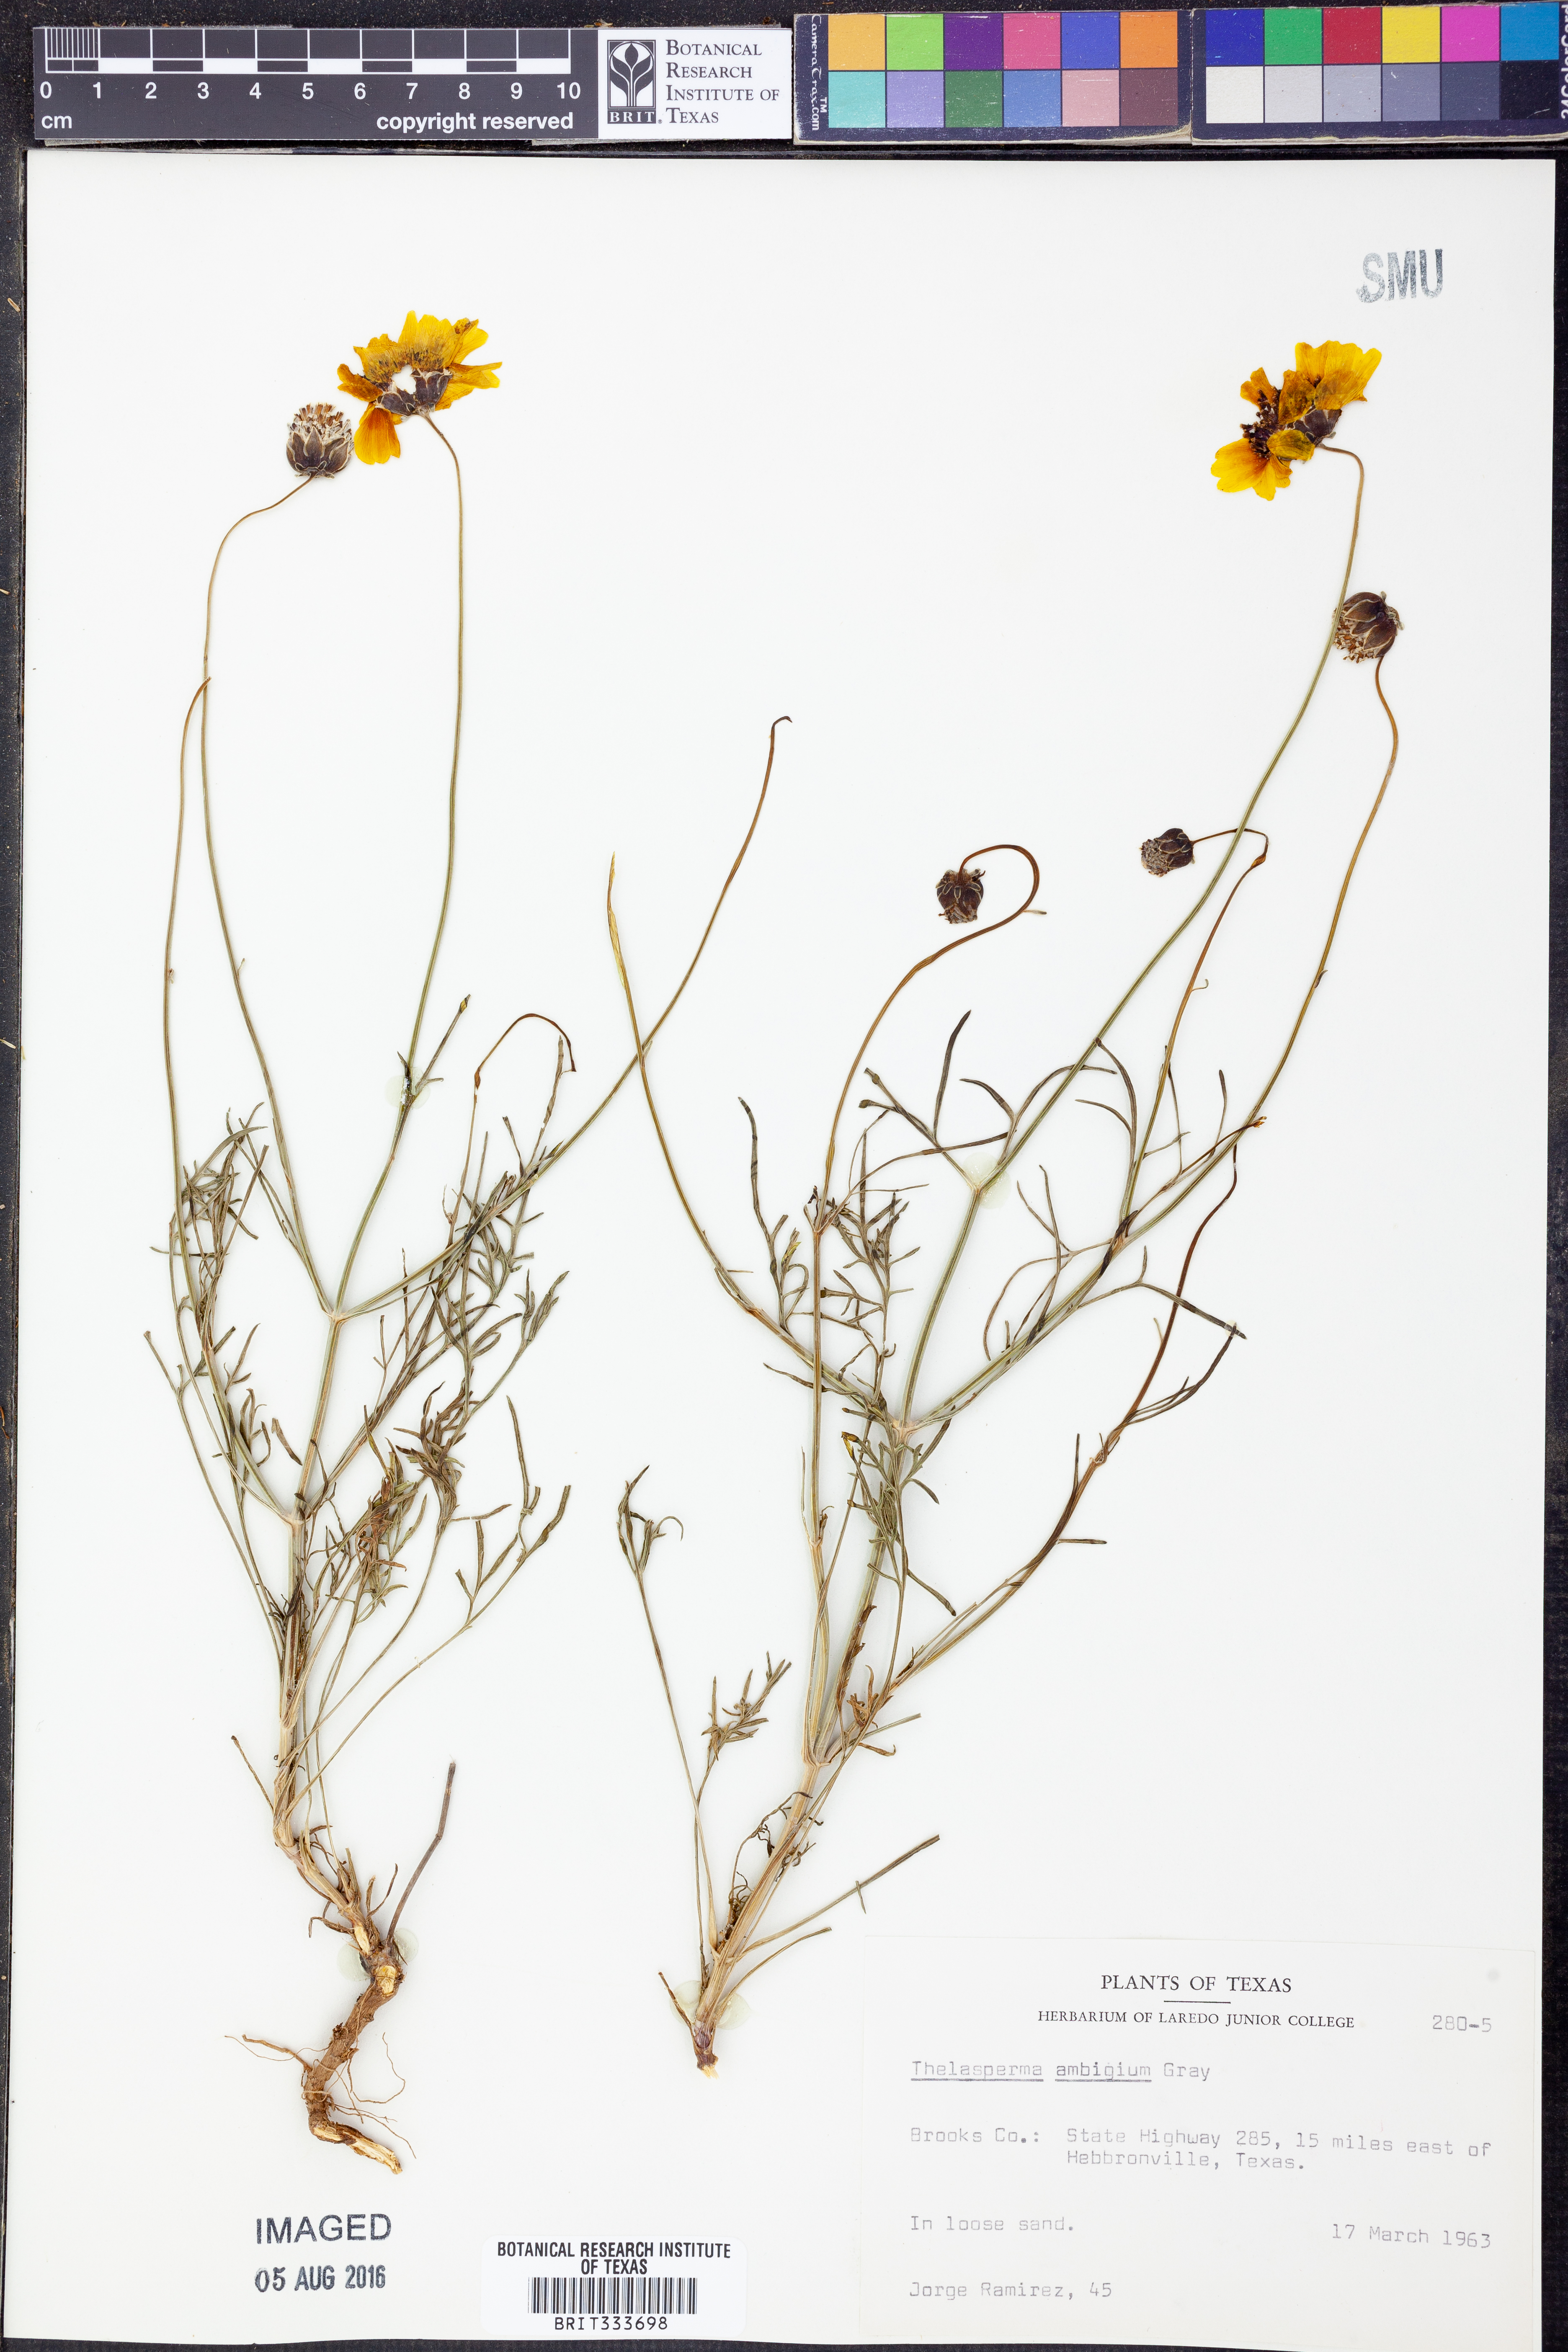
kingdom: Plantae
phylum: Tracheophyta
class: Magnoliopsida
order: Asterales
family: Asteraceae
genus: Thelesperma
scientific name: Thelesperma ambiguum
